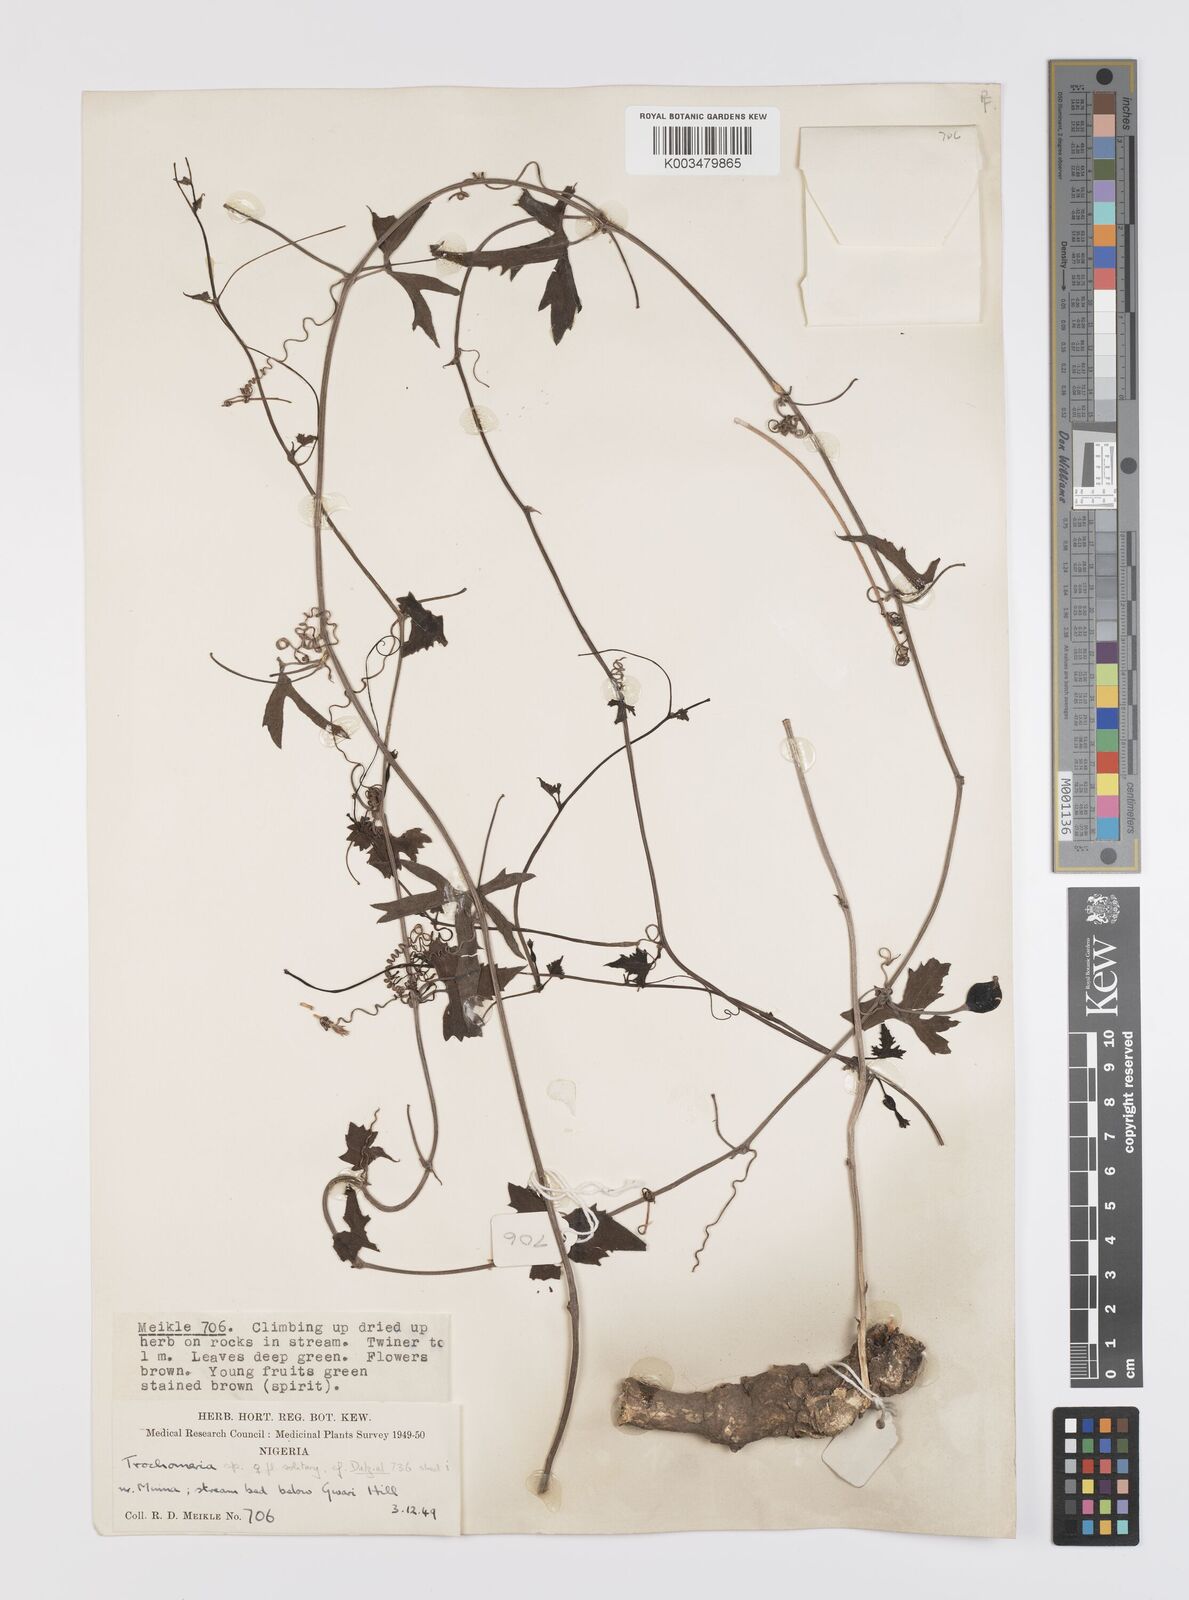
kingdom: Plantae
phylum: Tracheophyta
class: Magnoliopsida
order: Cucurbitales
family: Cucurbitaceae
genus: Trochomeria
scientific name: Trochomeria macrocarpa
